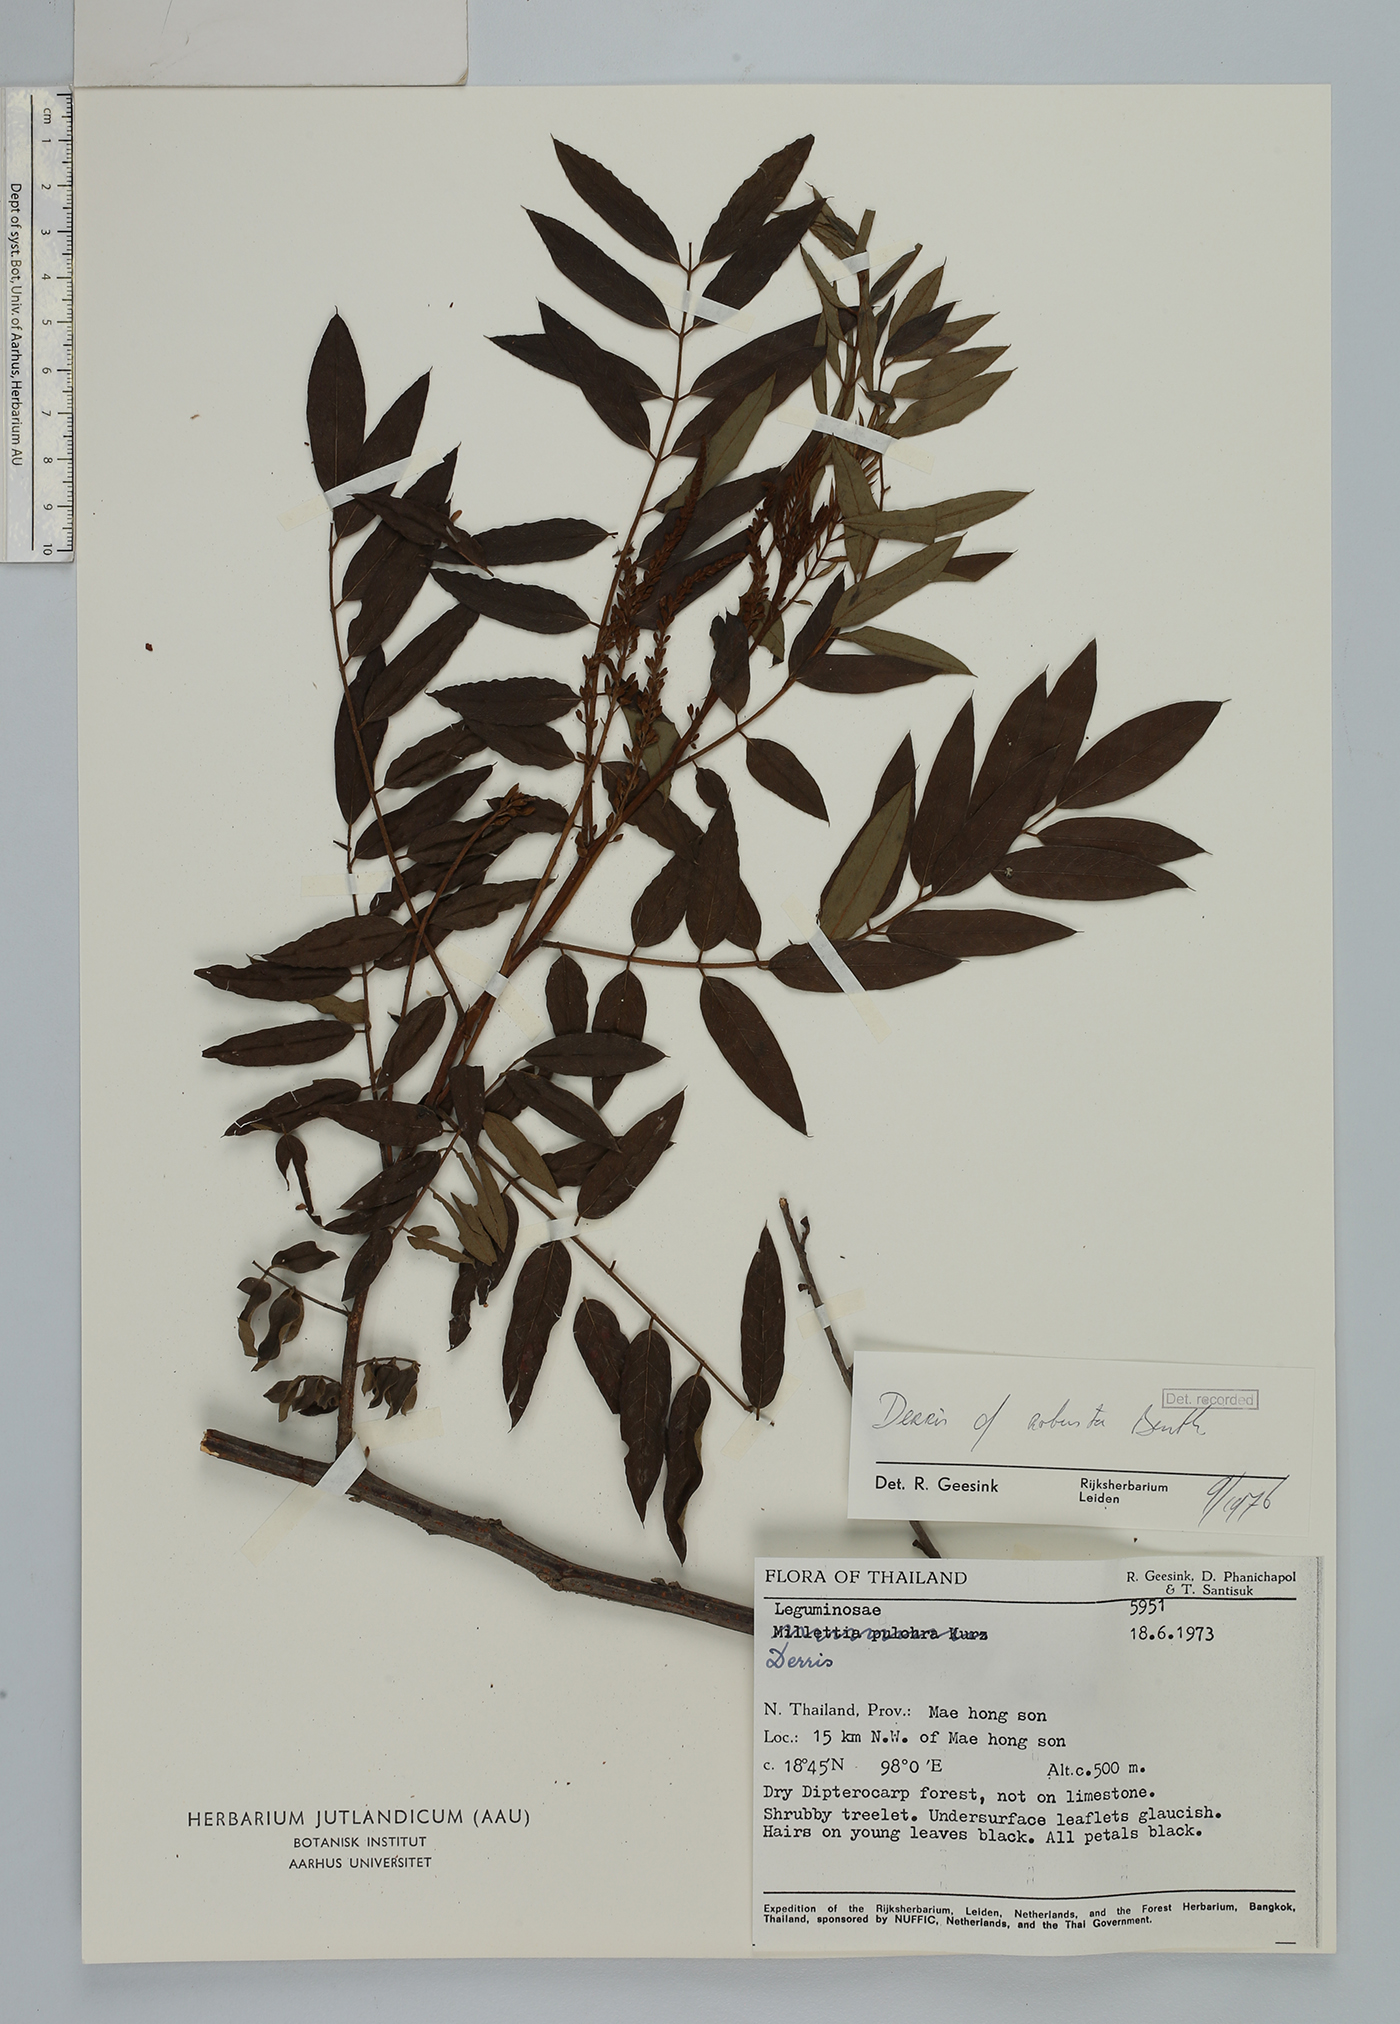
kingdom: Plantae
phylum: Tracheophyta
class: Magnoliopsida
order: Fabales
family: Fabaceae
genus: Brachypterum
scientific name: Brachypterum robustum
